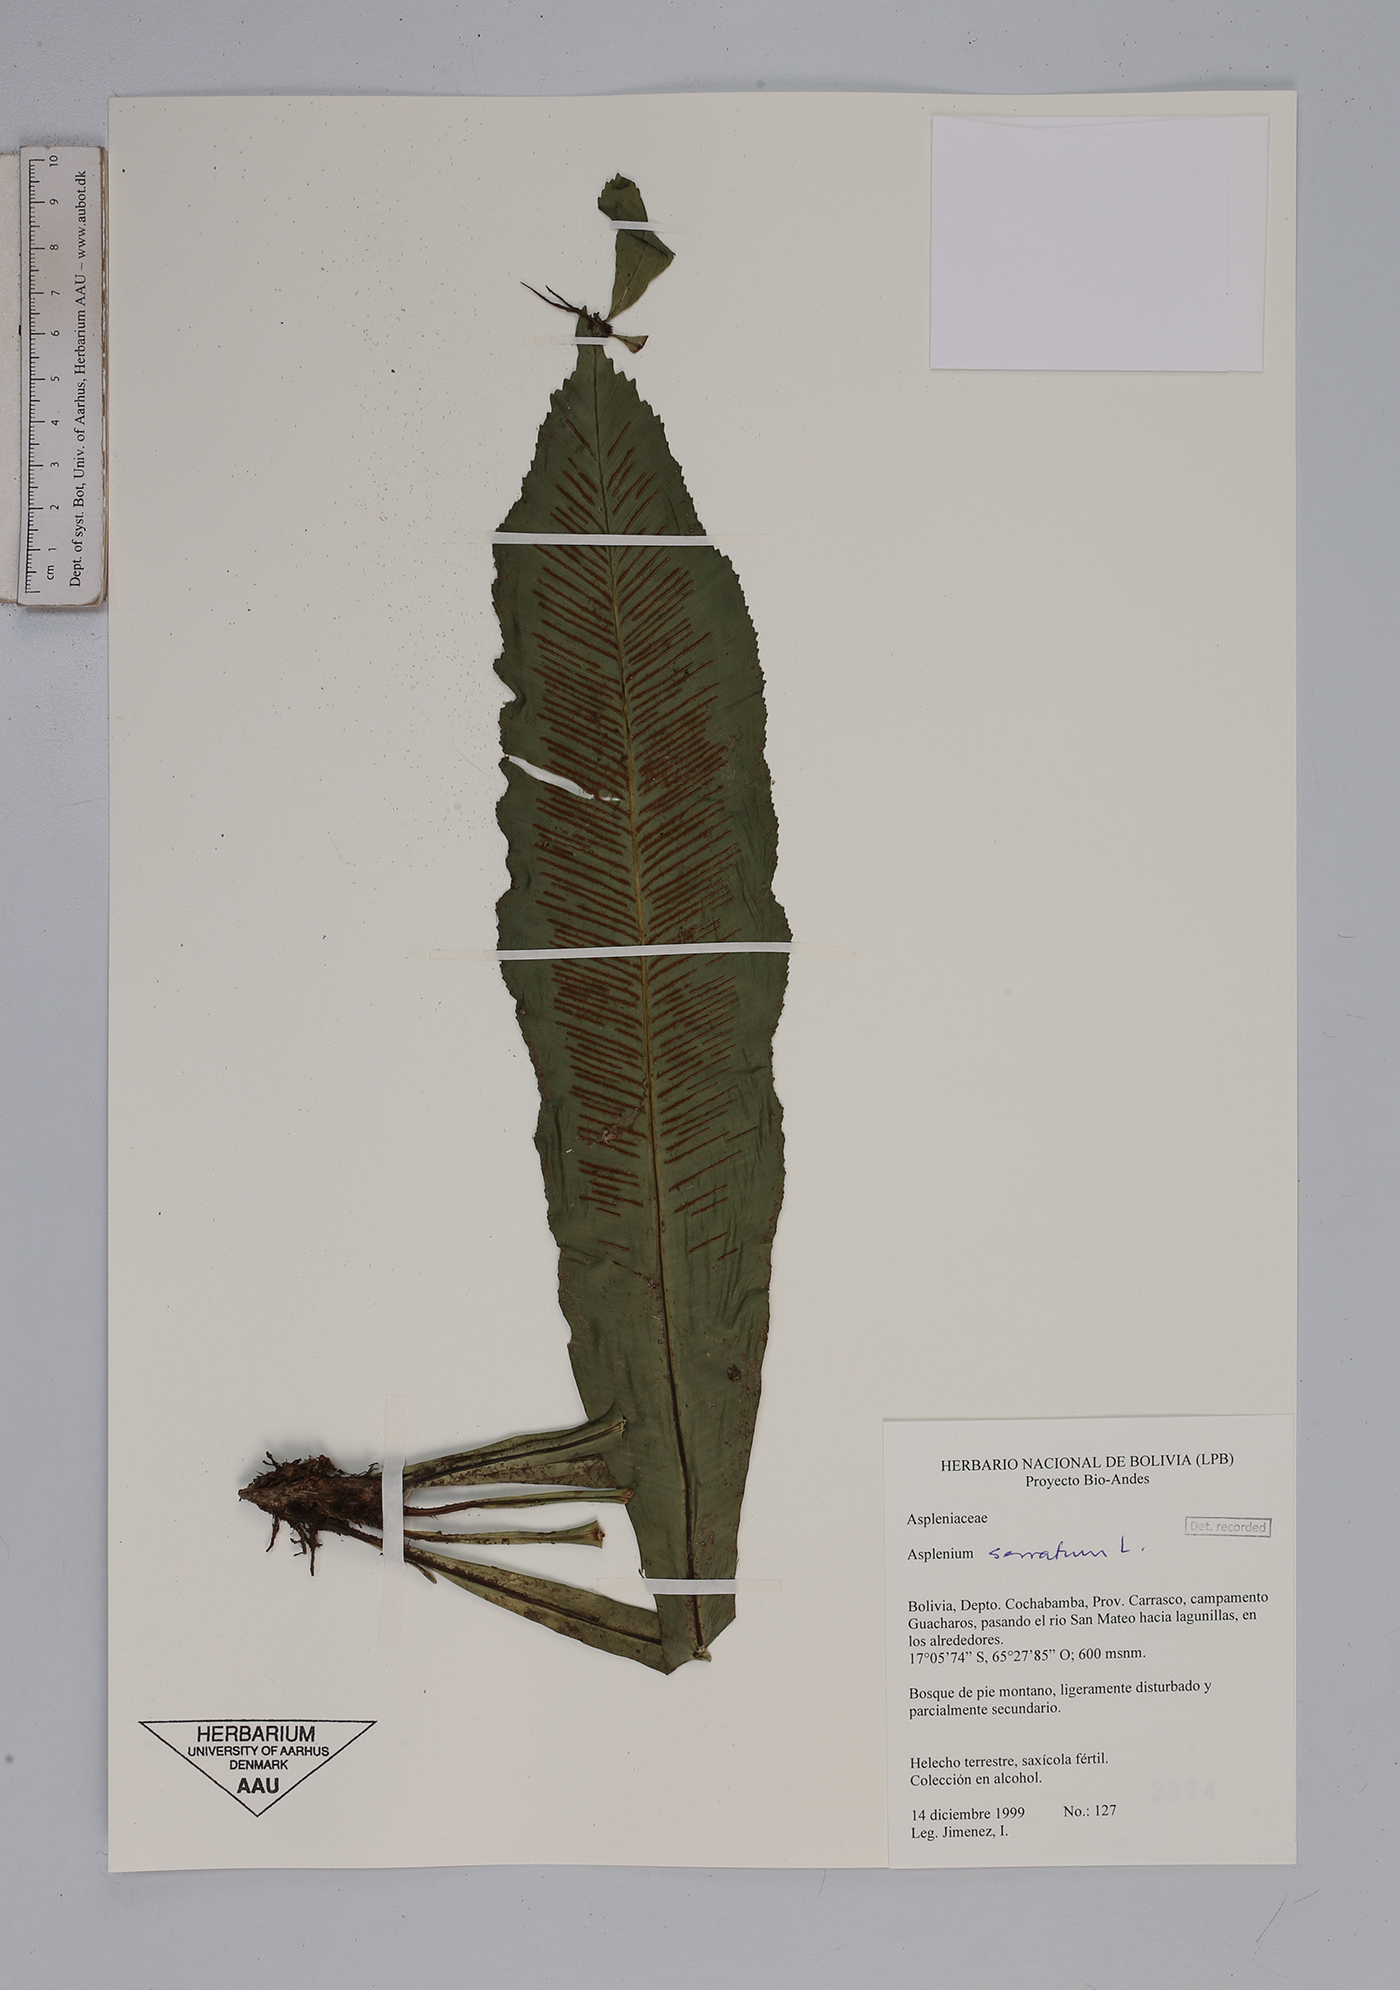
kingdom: Plantae
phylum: Tracheophyta
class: Polypodiopsida
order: Polypodiales
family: Aspleniaceae
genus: Asplenium
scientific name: Asplenium serratum
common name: Wild birdnest fern
